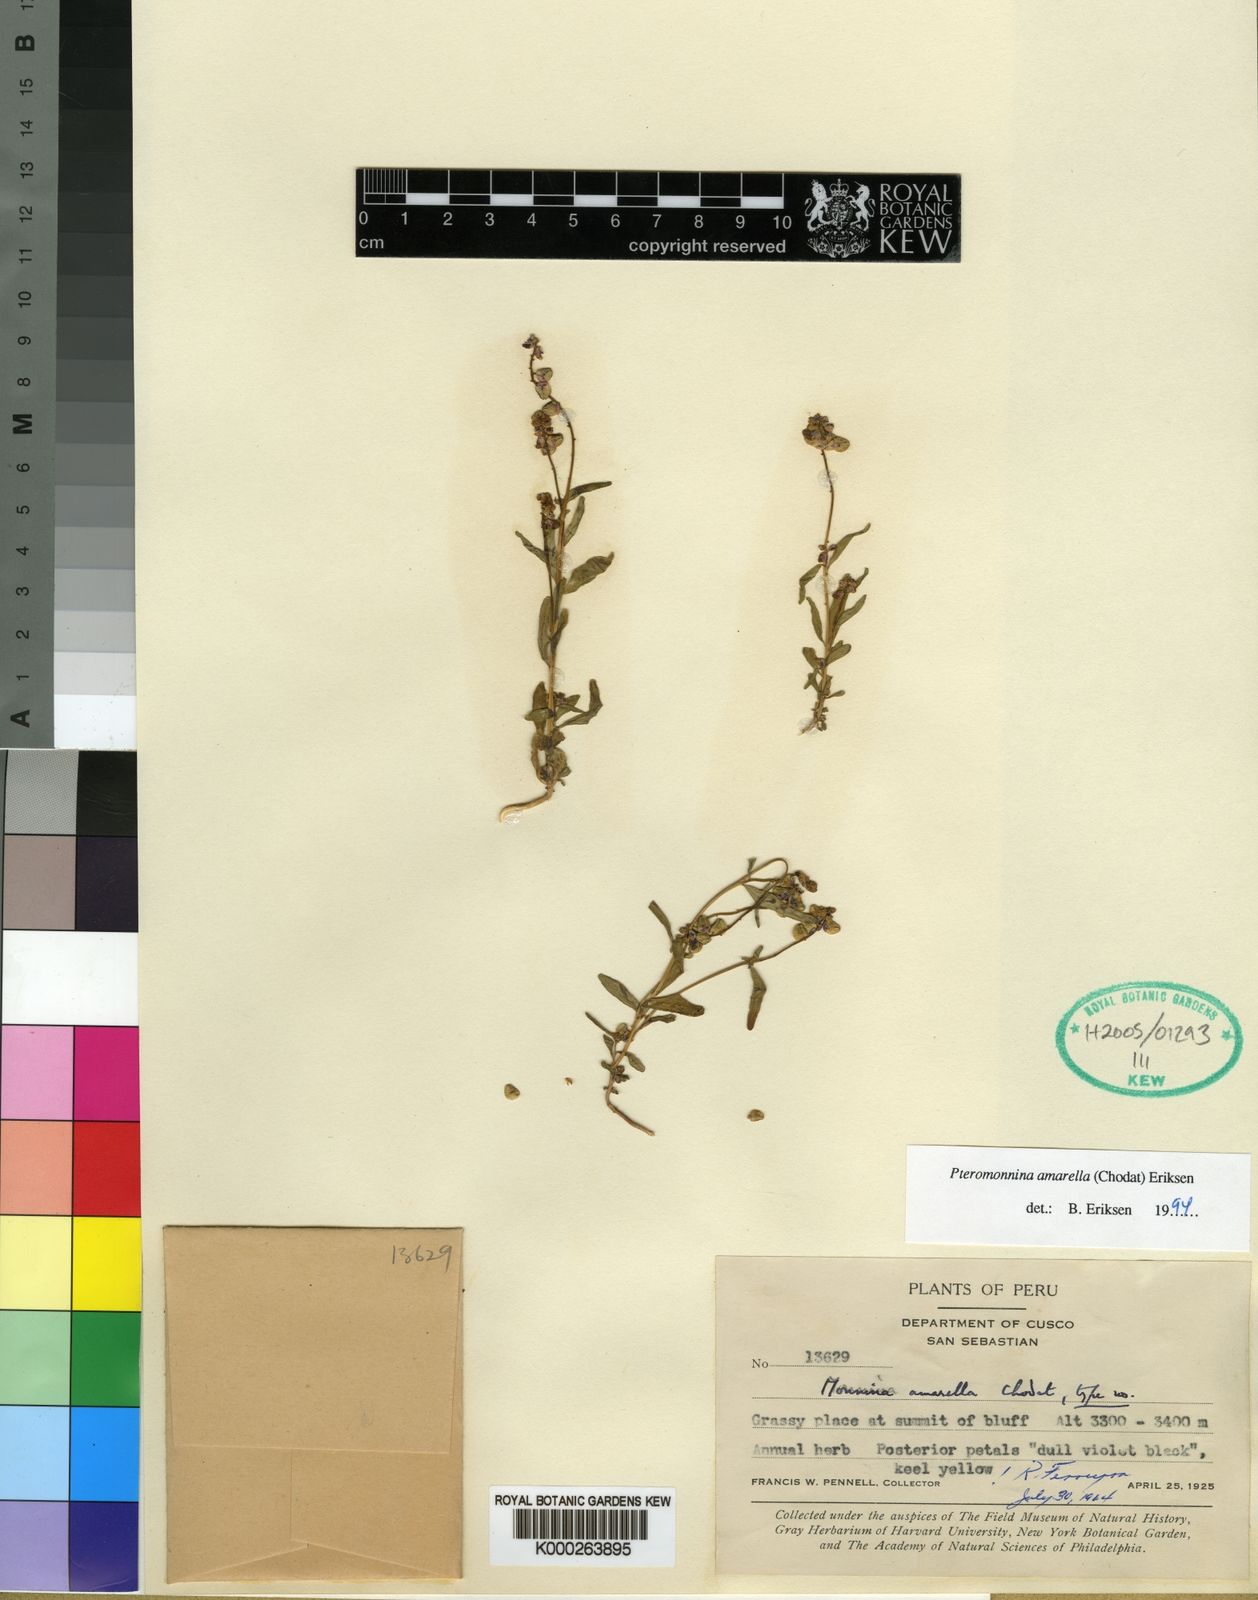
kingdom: Plantae
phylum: Tracheophyta
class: Magnoliopsida
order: Fabales
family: Polygalaceae
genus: Monnina
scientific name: Monnina
